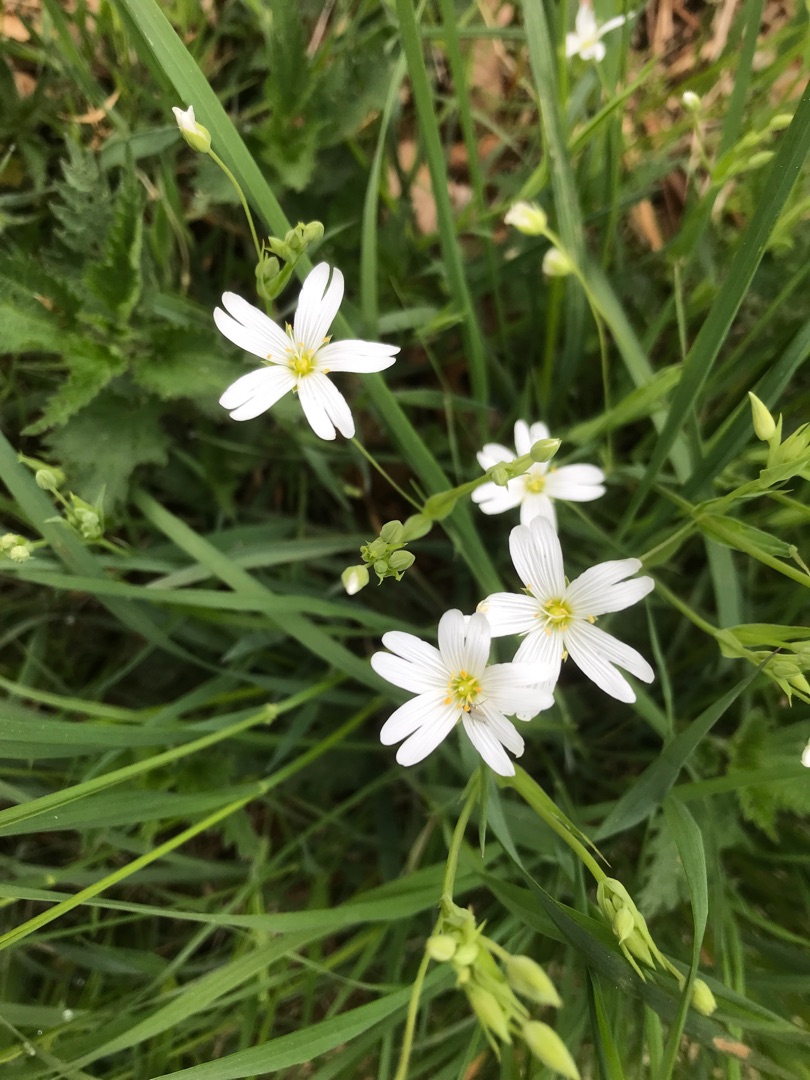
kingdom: Plantae
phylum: Tracheophyta
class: Magnoliopsida
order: Caryophyllales
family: Caryophyllaceae
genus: Rabelera
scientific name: Rabelera holostea
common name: Stor fladstjerne
